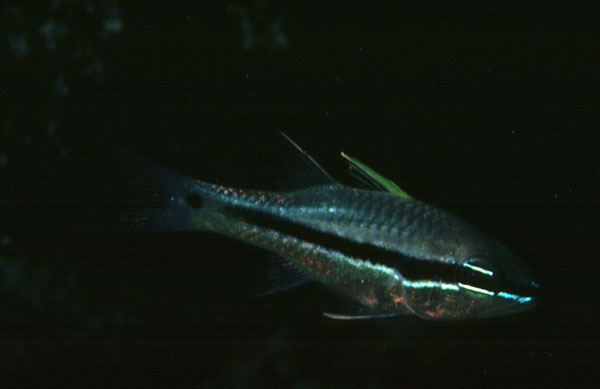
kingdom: Animalia
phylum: Chordata
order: Perciformes
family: Apogonidae
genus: Pristiapogon
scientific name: Pristiapogon fraenatus
